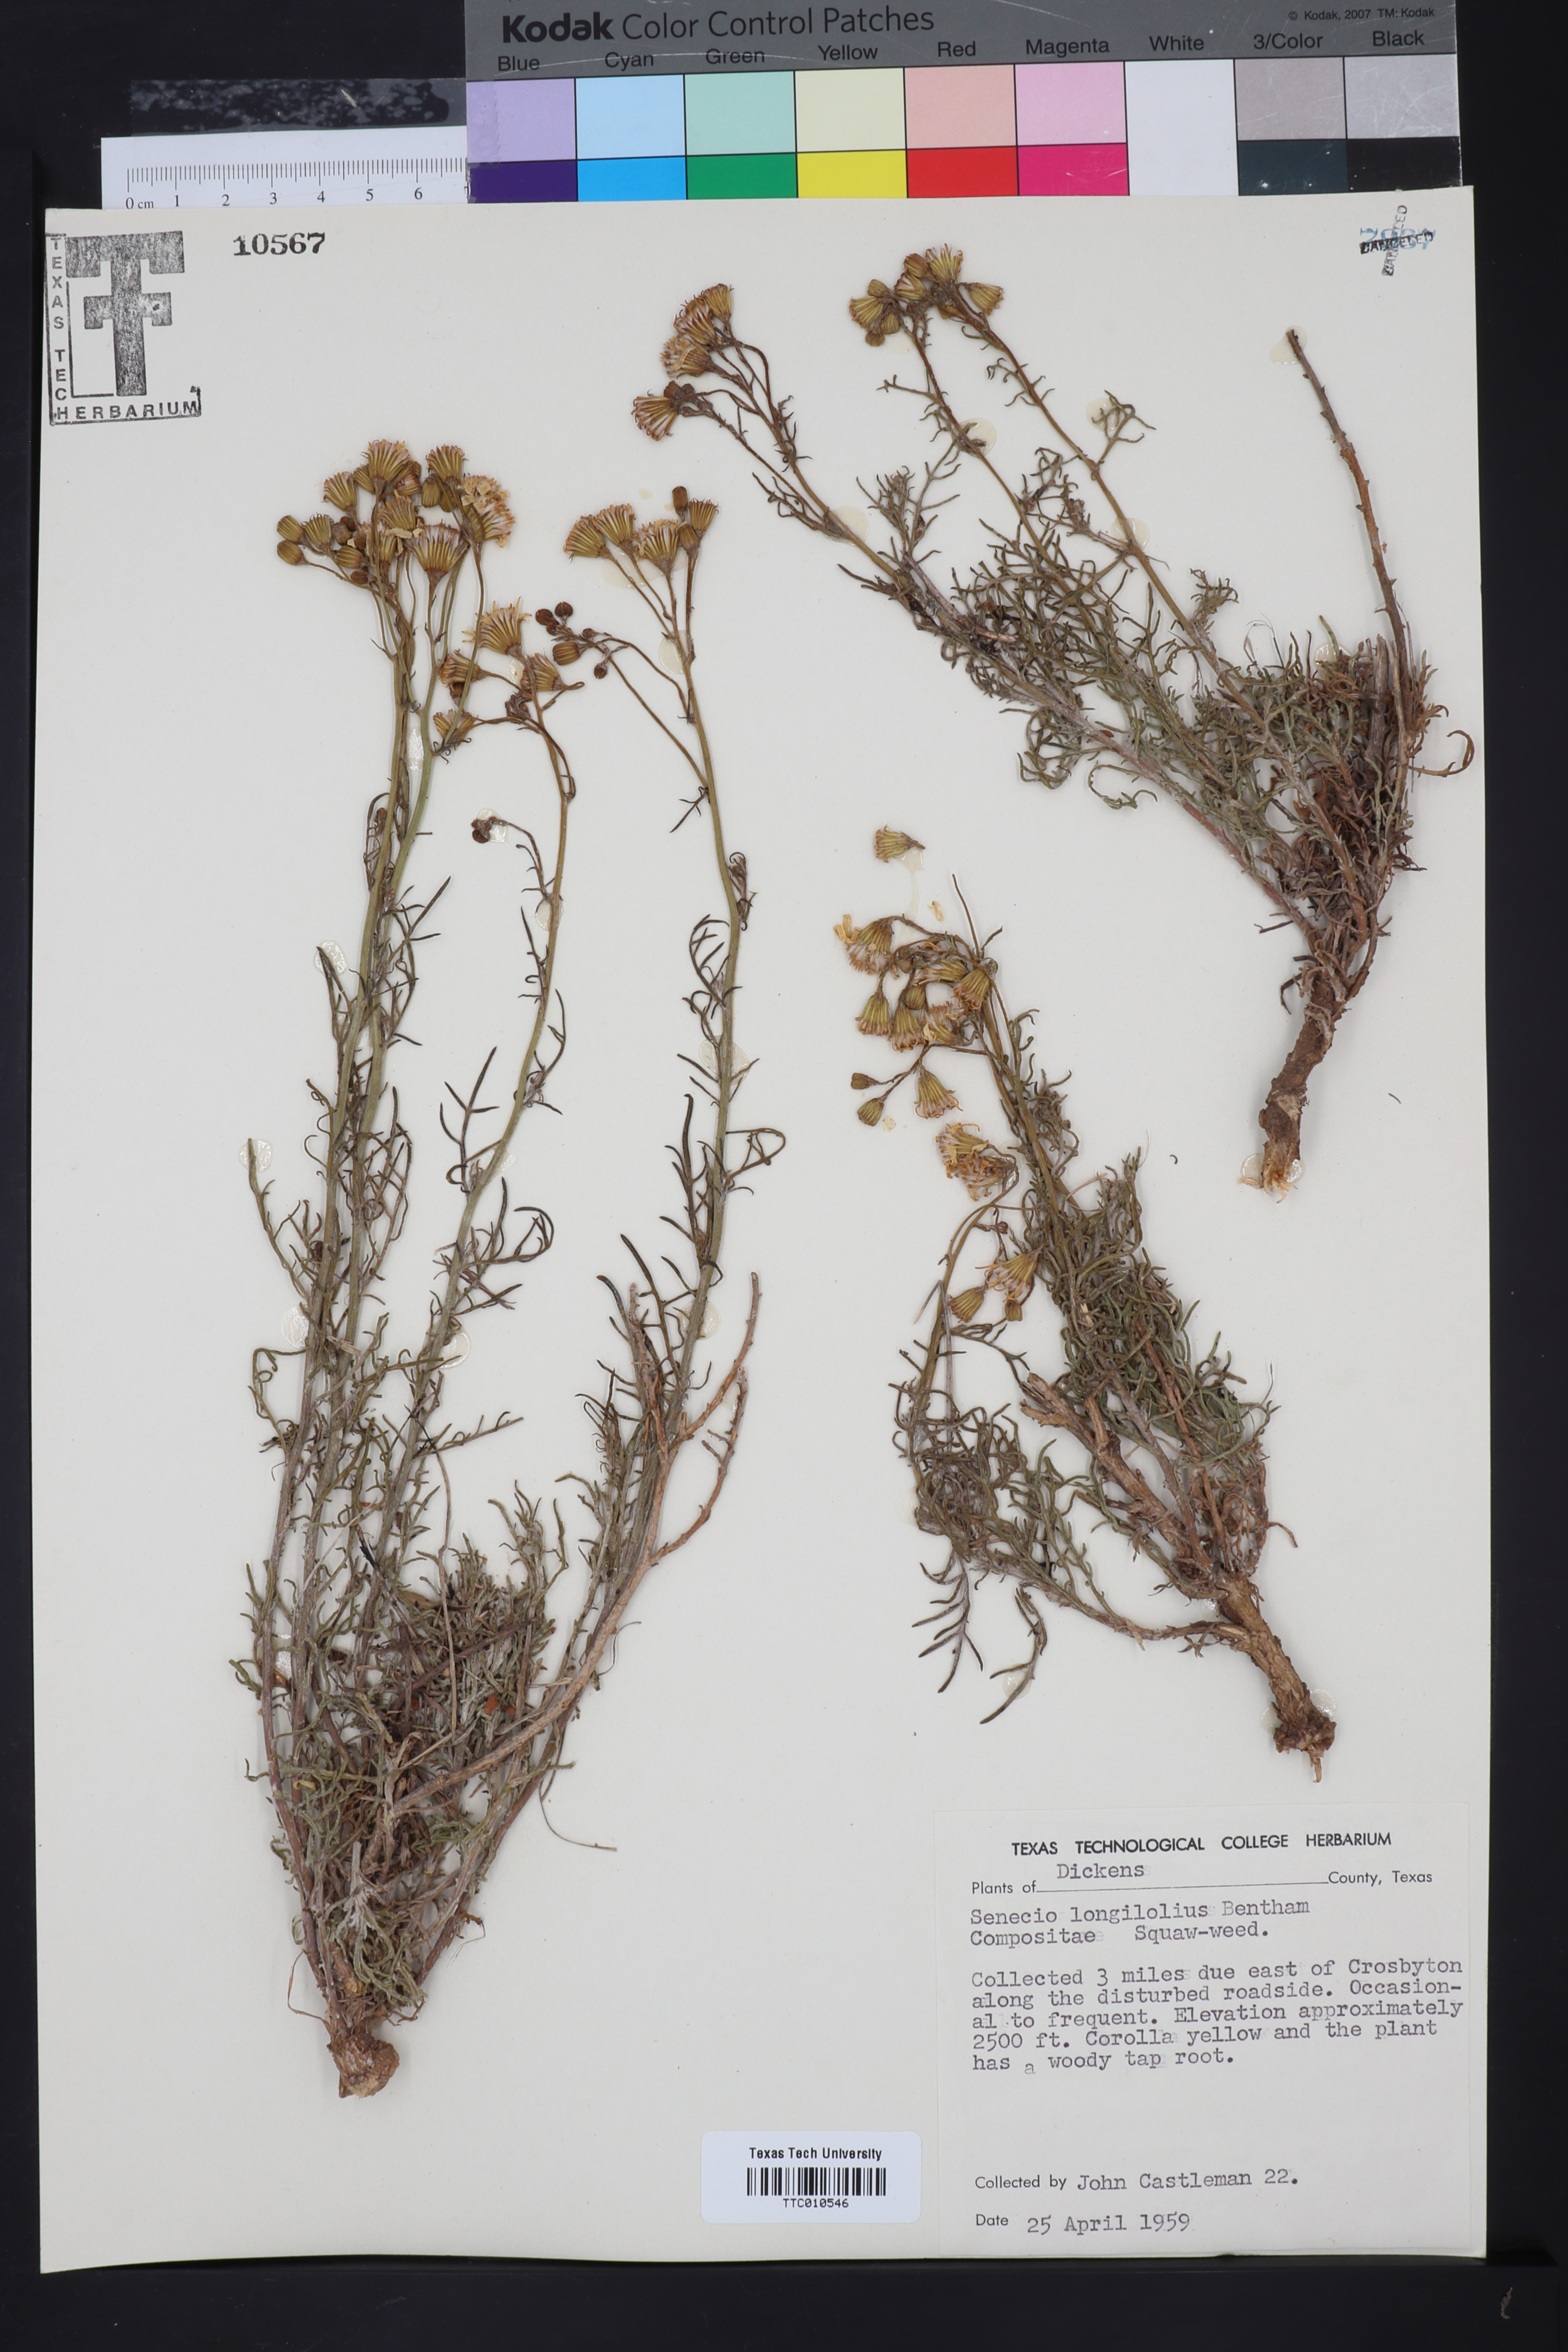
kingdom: Plantae
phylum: Tracheophyta
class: Magnoliopsida
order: Asterales
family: Asteraceae
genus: Senecio
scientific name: Senecio flaccidus
